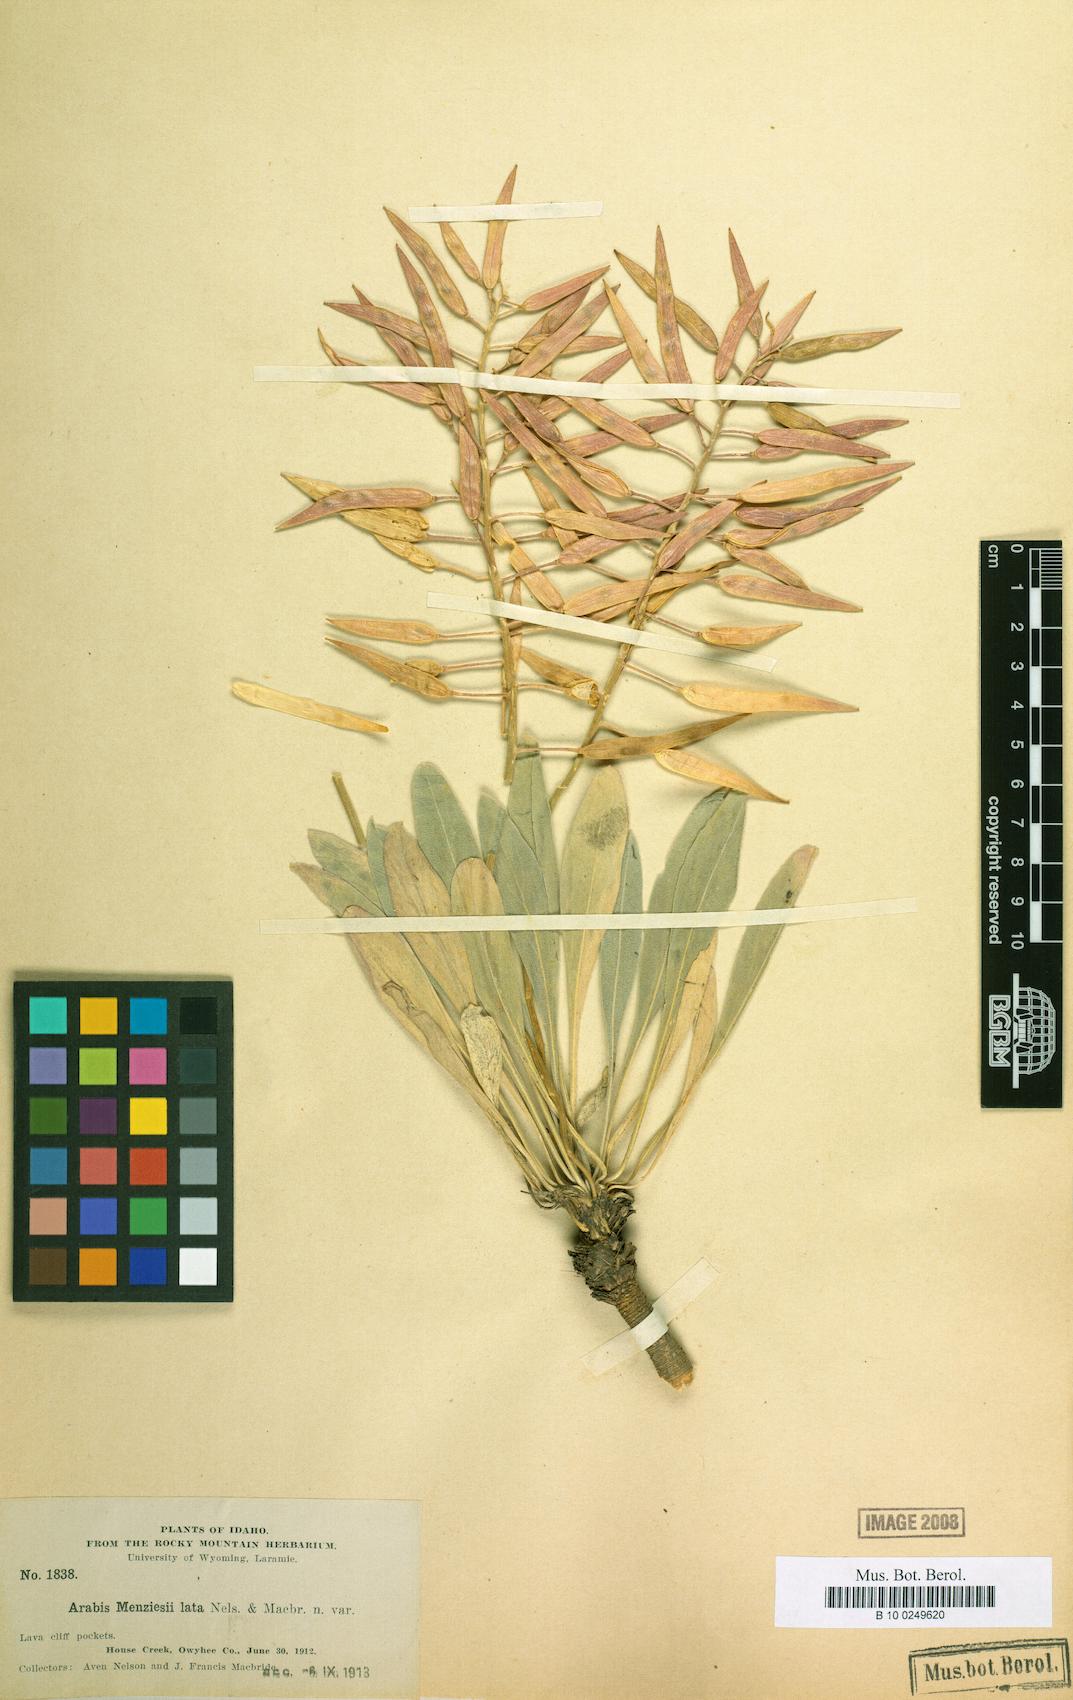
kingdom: Plantae
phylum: Tracheophyta
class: Magnoliopsida
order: Brassicales
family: Brassicaceae
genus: Phoenicaulis
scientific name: Phoenicaulis cheiranthoides
